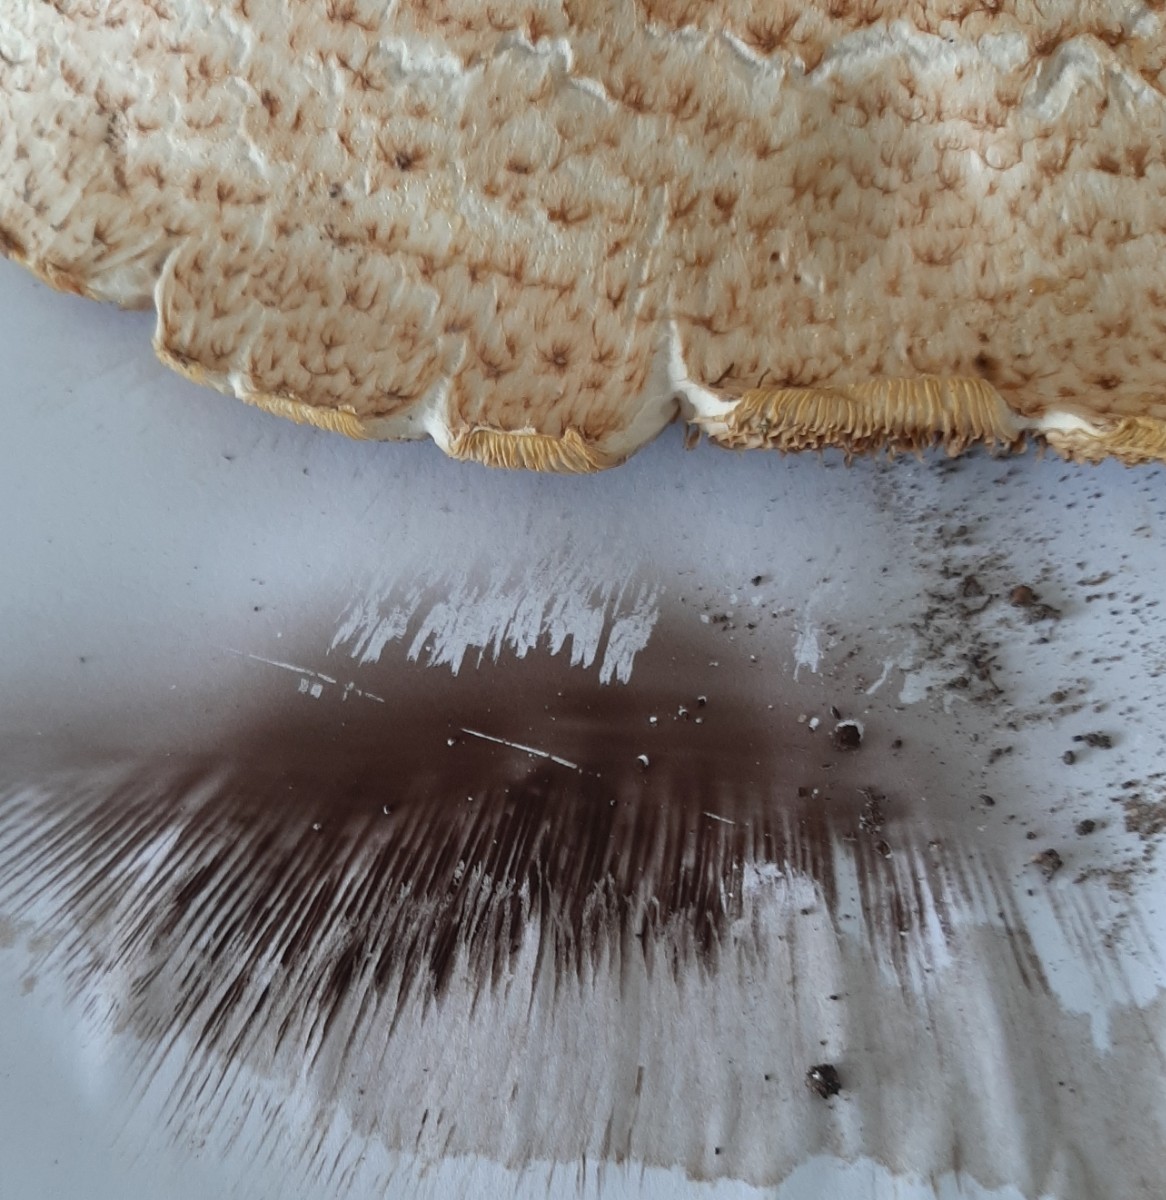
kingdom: Fungi
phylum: Basidiomycota
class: Agaricomycetes
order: Agaricales
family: Agaricaceae
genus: Agaricus
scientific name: Agaricus augustus
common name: prægtig champignon
